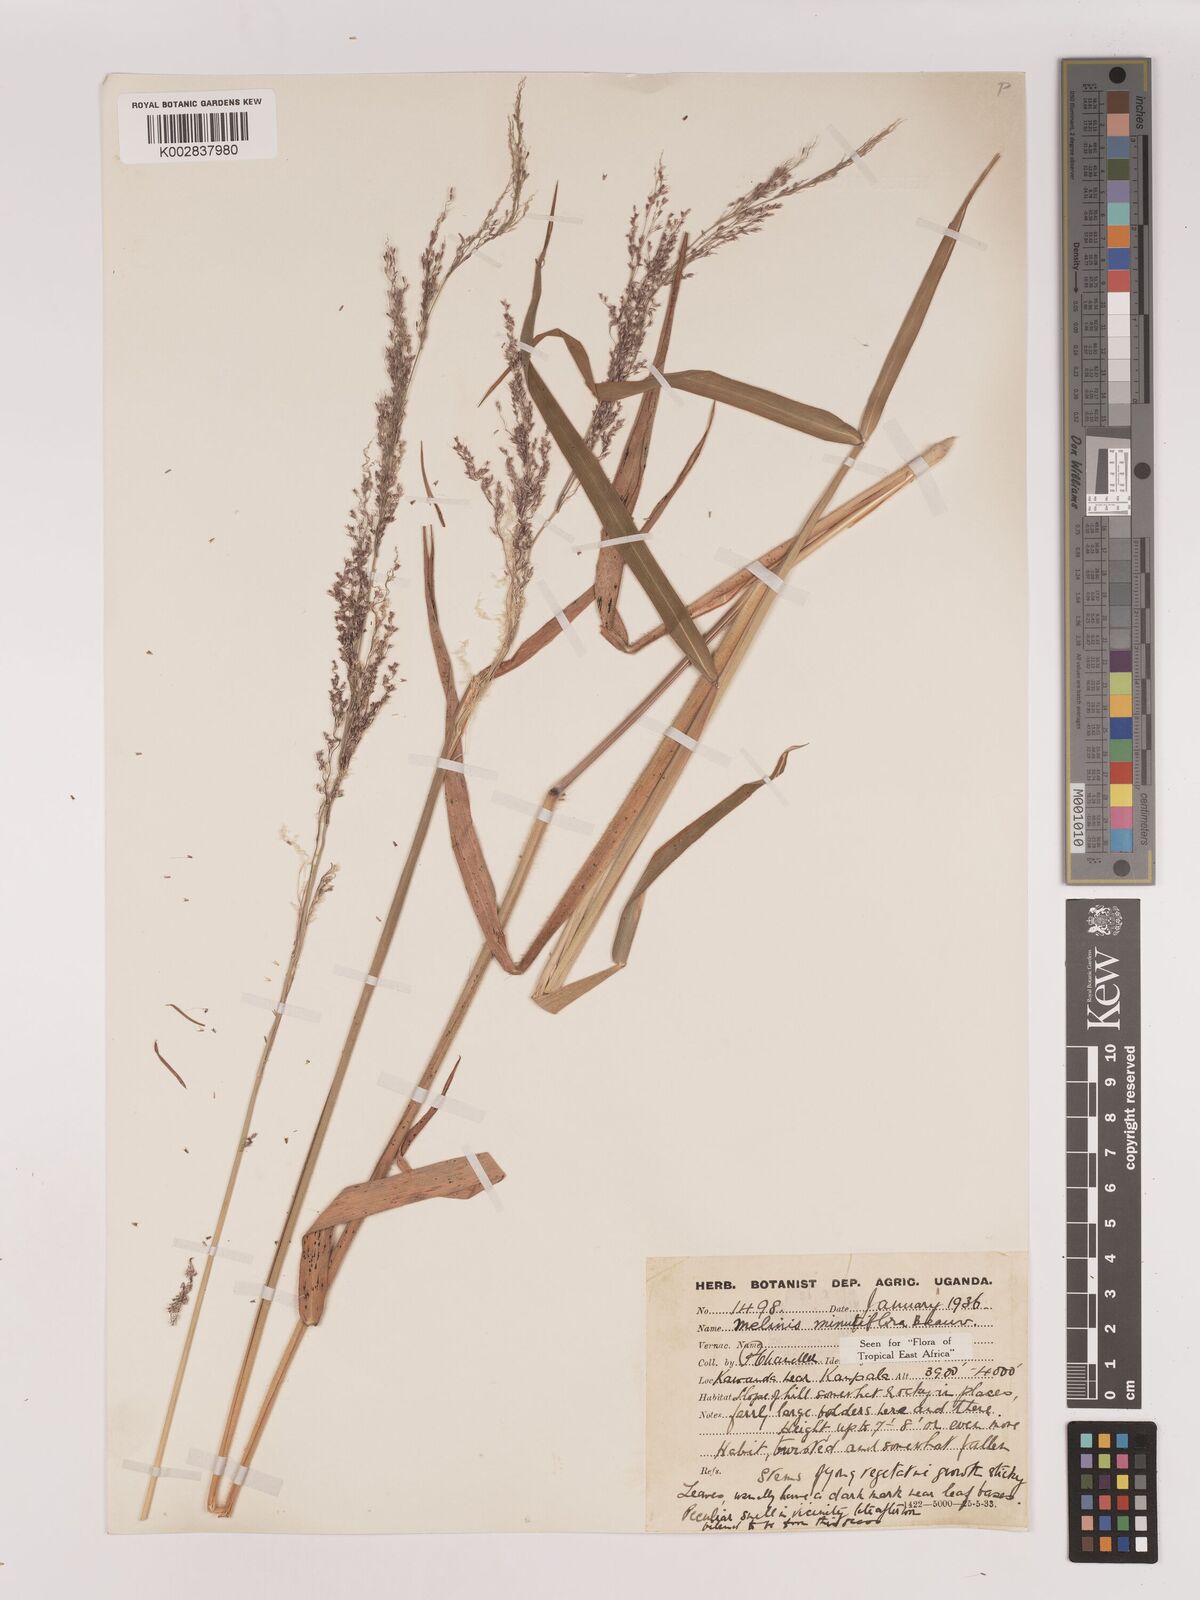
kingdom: Plantae
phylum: Tracheophyta
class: Liliopsida
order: Poales
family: Poaceae
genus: Melinis
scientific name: Melinis minutiflora
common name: Molassesgrass
